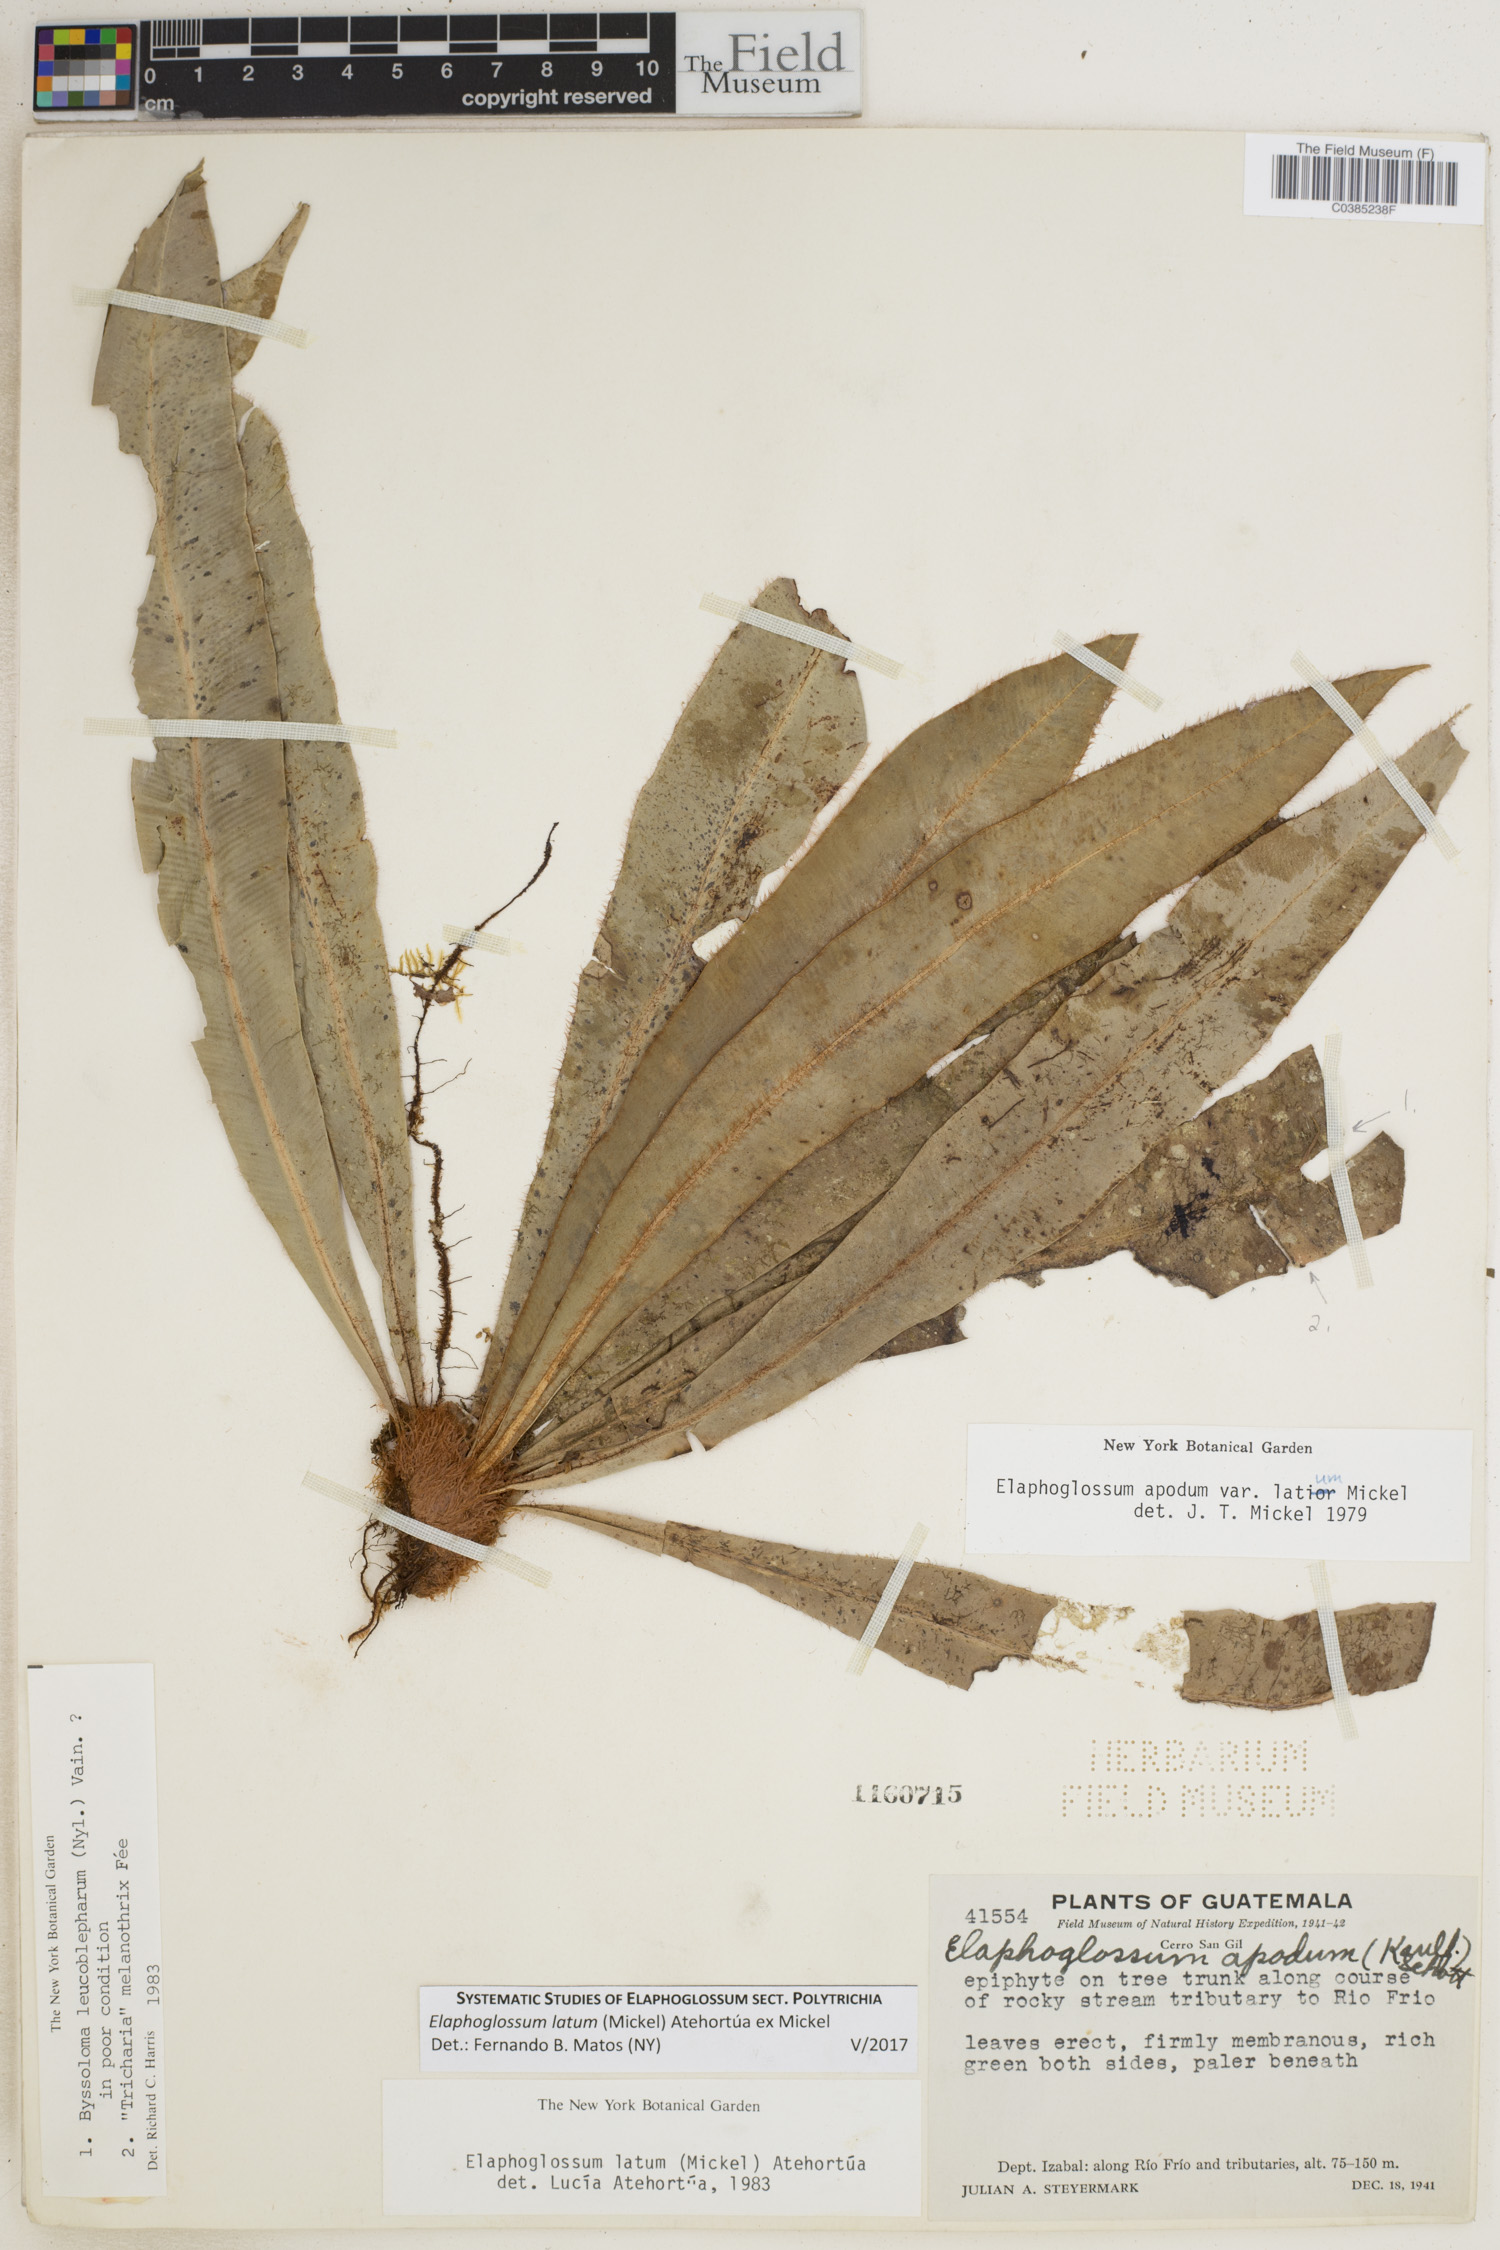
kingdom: Plantae
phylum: Tracheophyta
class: Polypodiopsida
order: Polypodiales
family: Dryopteridaceae
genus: Elaphoglossum
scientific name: Elaphoglossum latum
